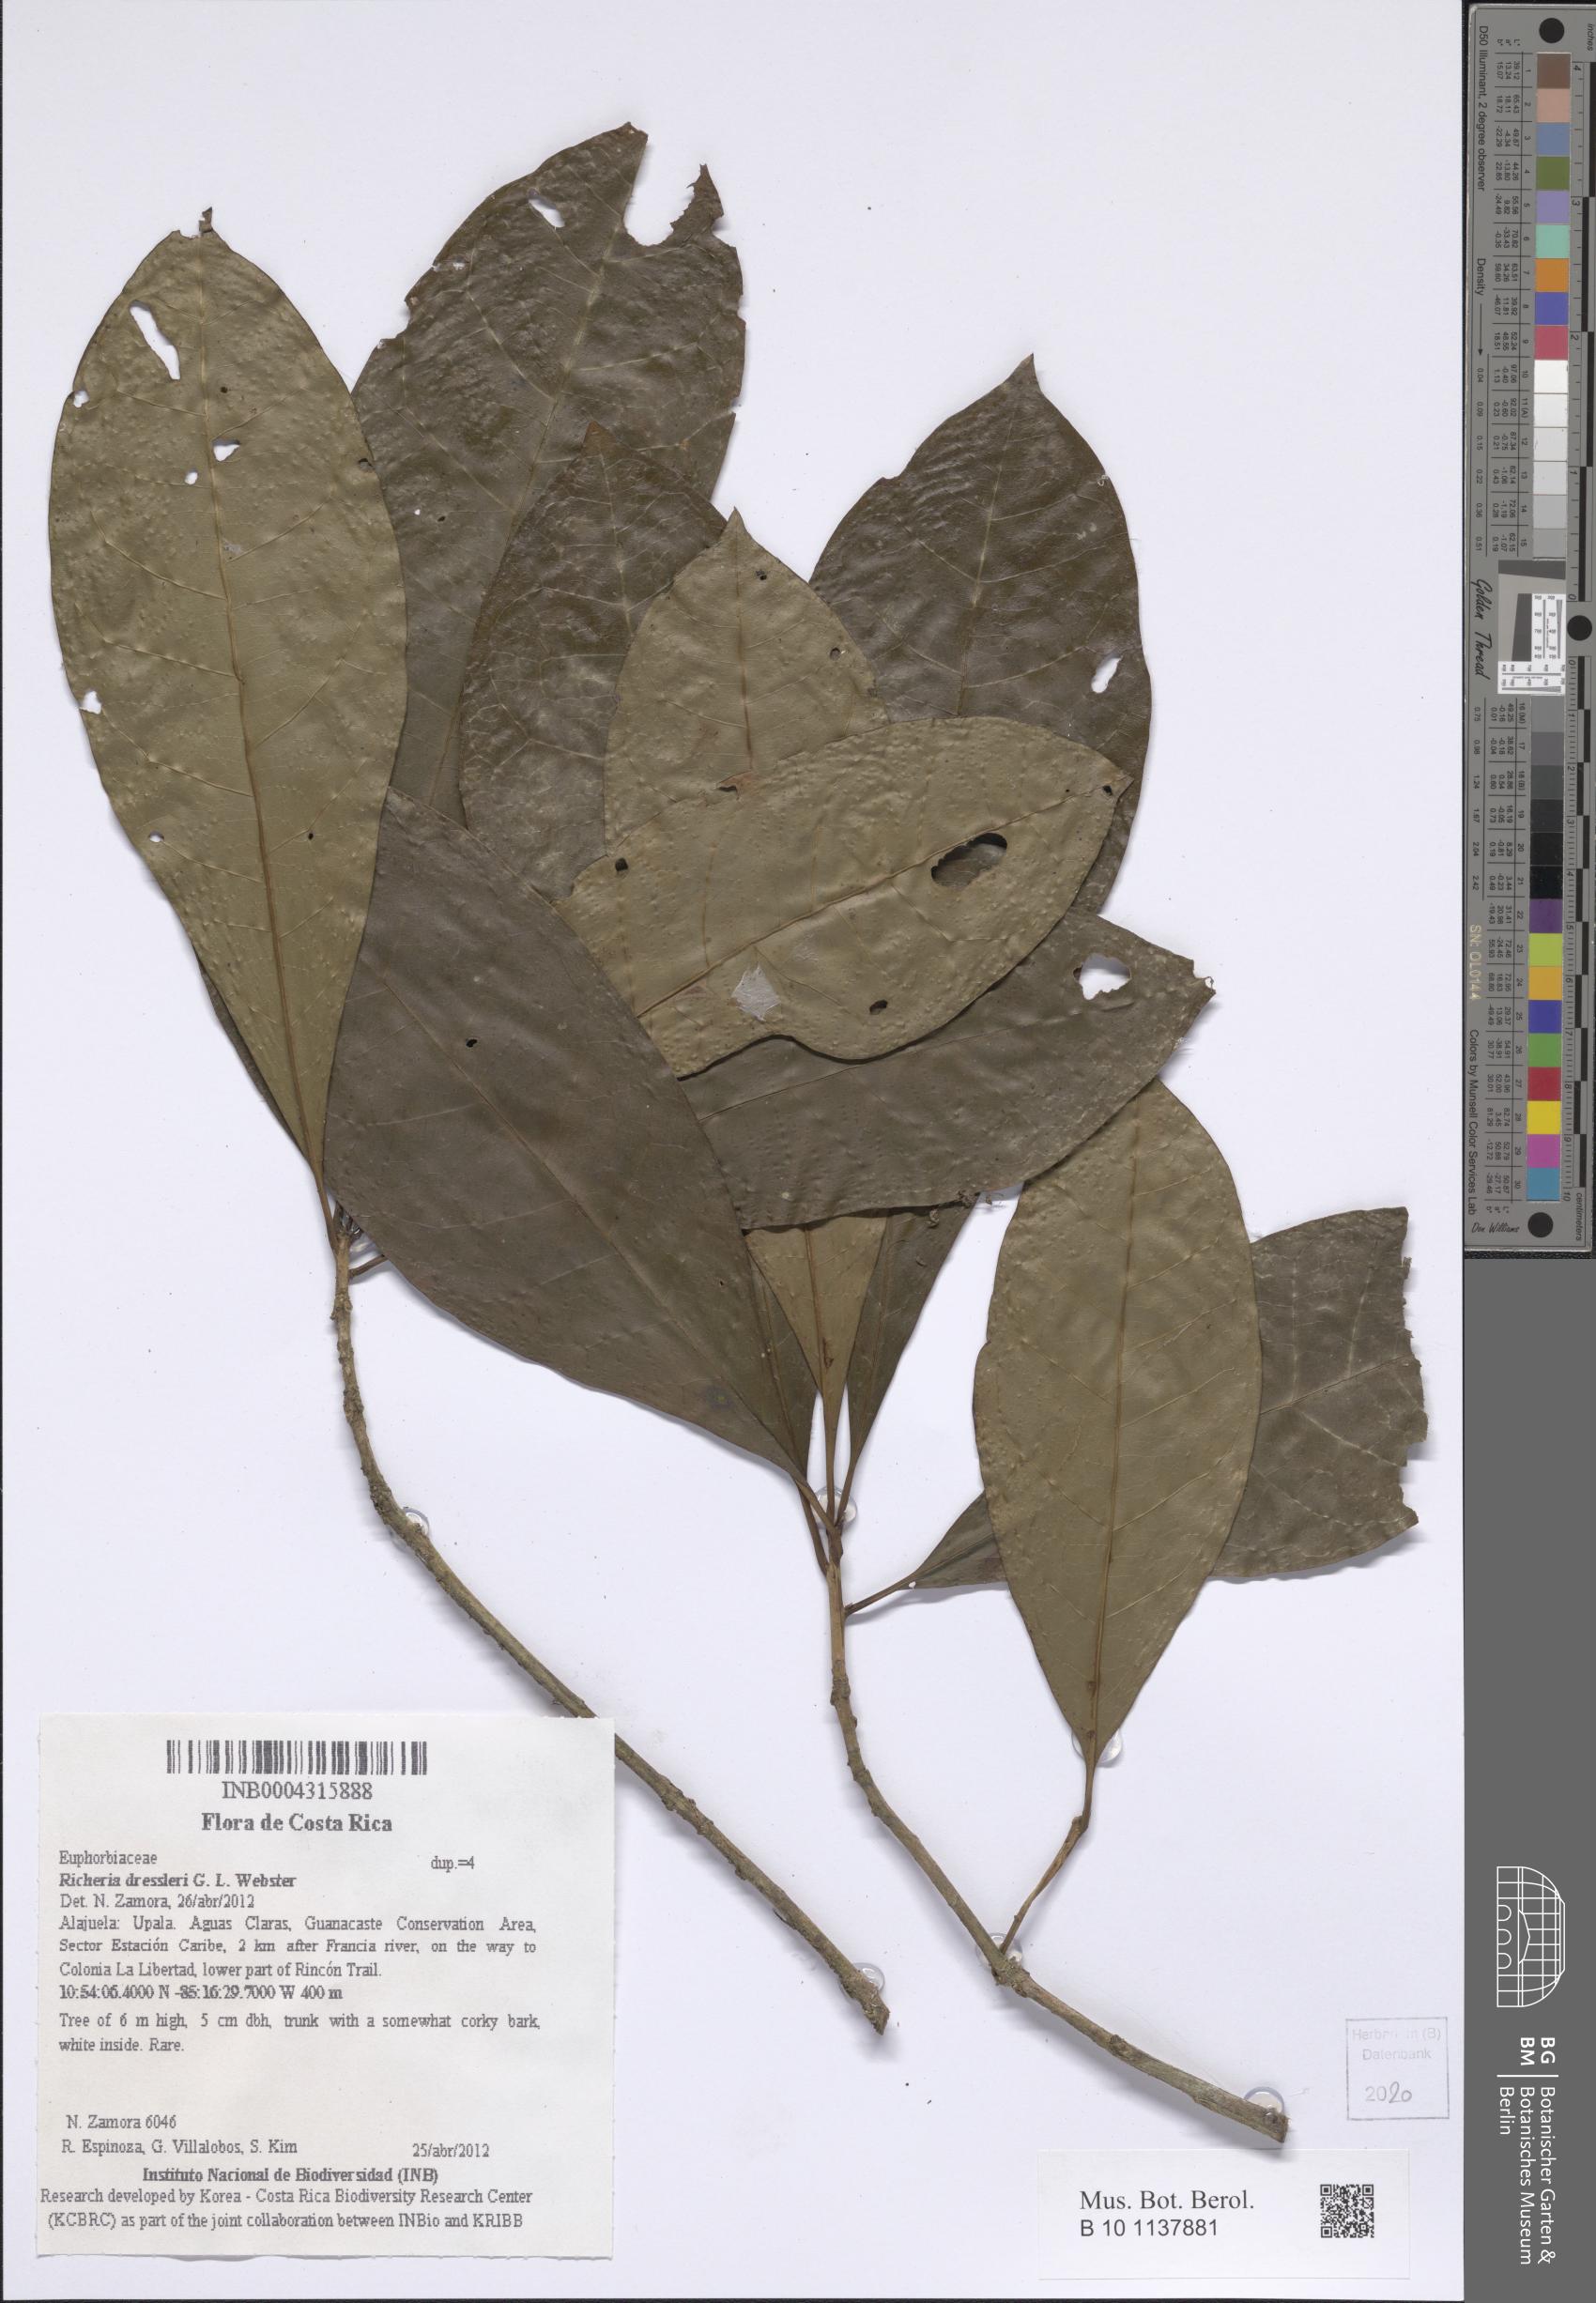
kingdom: Plantae
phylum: Tracheophyta
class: Magnoliopsida
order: Malpighiales
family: Phyllanthaceae
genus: Richeria
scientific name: Richeria dressleri
